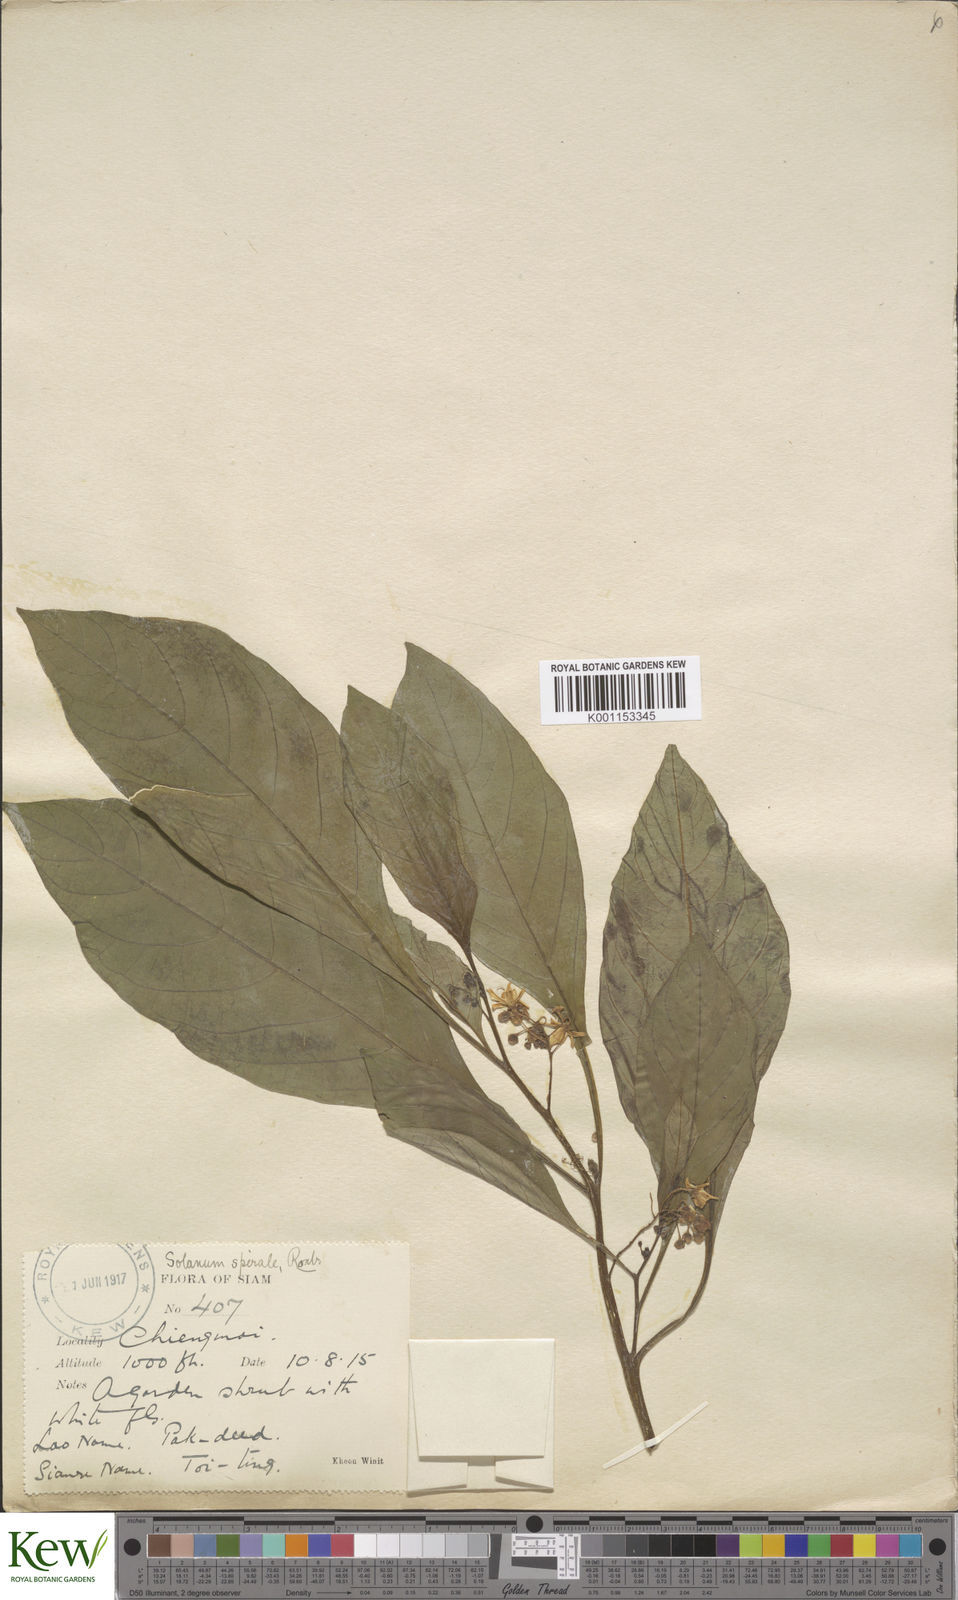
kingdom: Plantae
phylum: Tracheophyta
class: Magnoliopsida
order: Solanales
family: Solanaceae
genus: Solanum
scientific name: Solanum spirale
